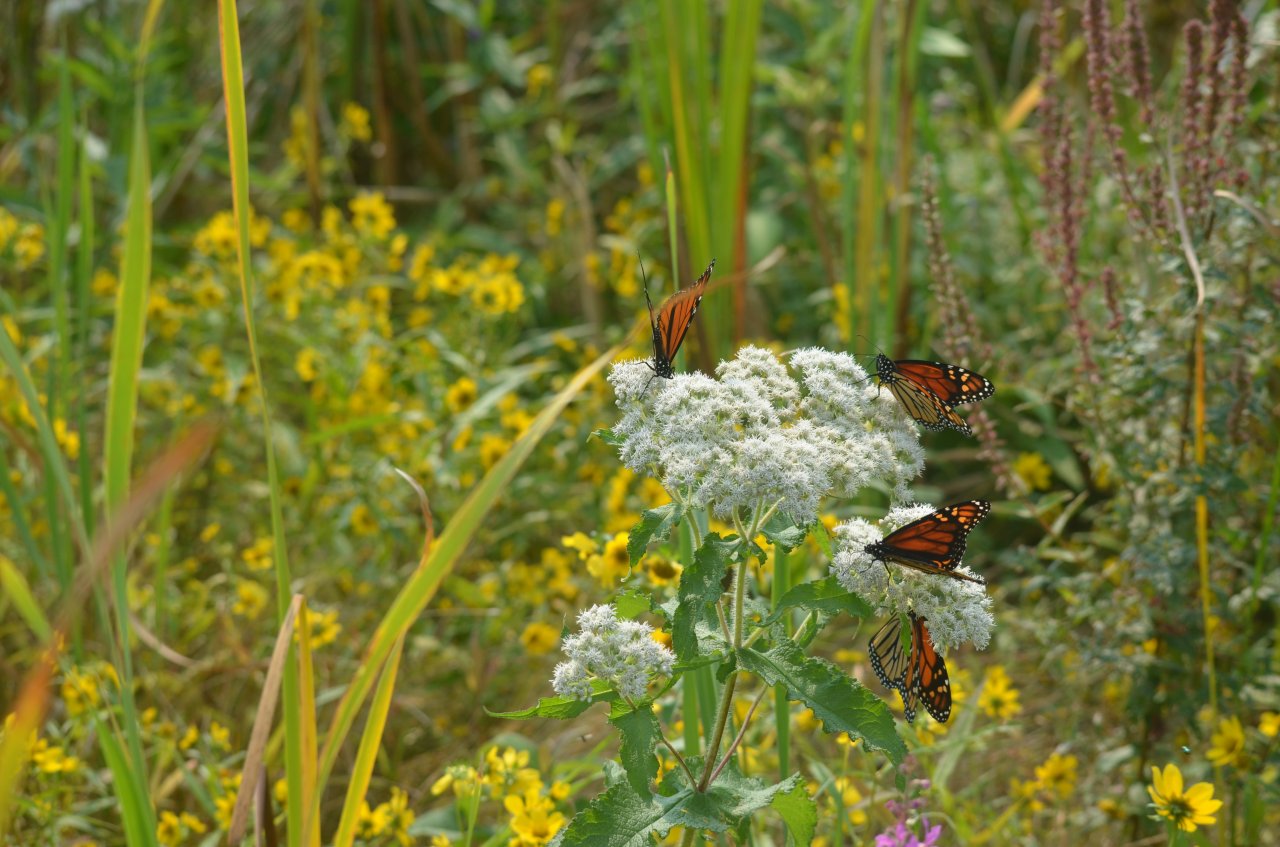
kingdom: Animalia
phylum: Arthropoda
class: Insecta
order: Lepidoptera
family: Nymphalidae
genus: Danaus
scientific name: Danaus plexippus
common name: Monarch
